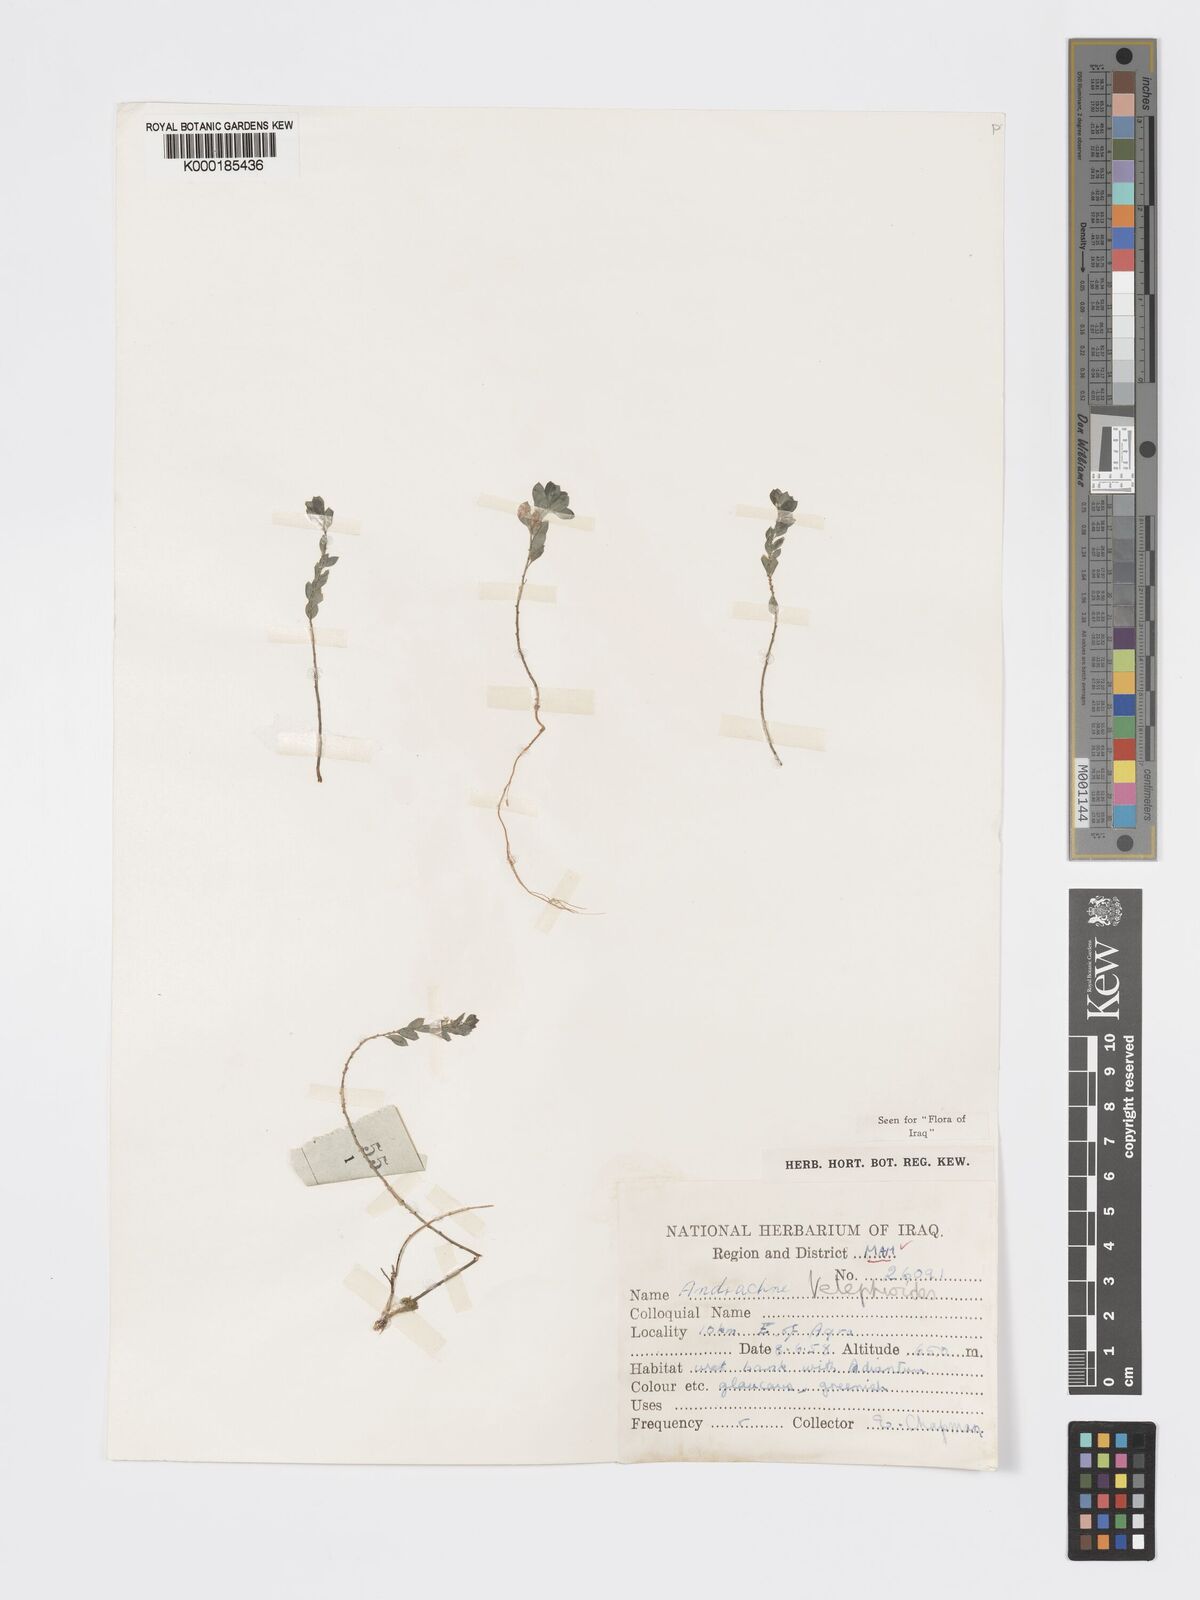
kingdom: Plantae
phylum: Tracheophyta
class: Magnoliopsida
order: Malpighiales
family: Phyllanthaceae
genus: Andrachne
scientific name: Andrachne telephioides
